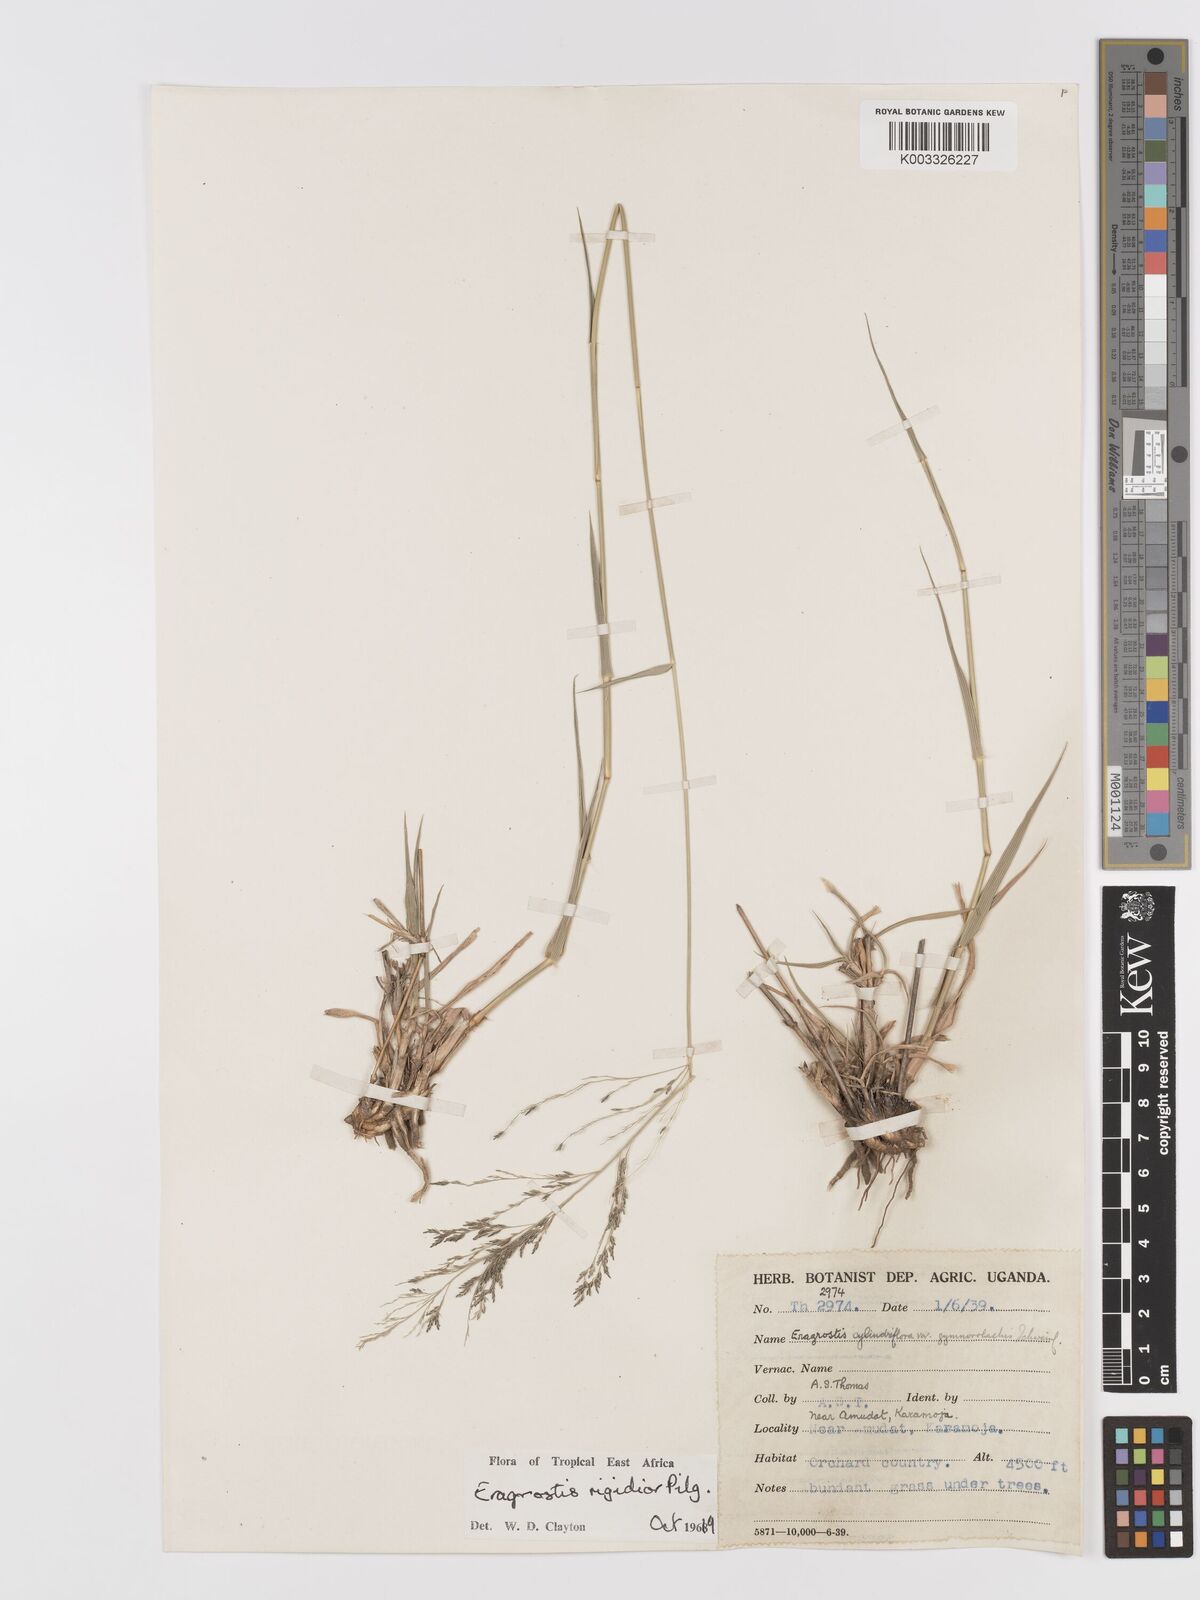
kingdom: Plantae
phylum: Tracheophyta
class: Liliopsida
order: Poales
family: Poaceae
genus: Eragrostis
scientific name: Eragrostis cylindriflora
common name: Cylinderflower lovegrass
